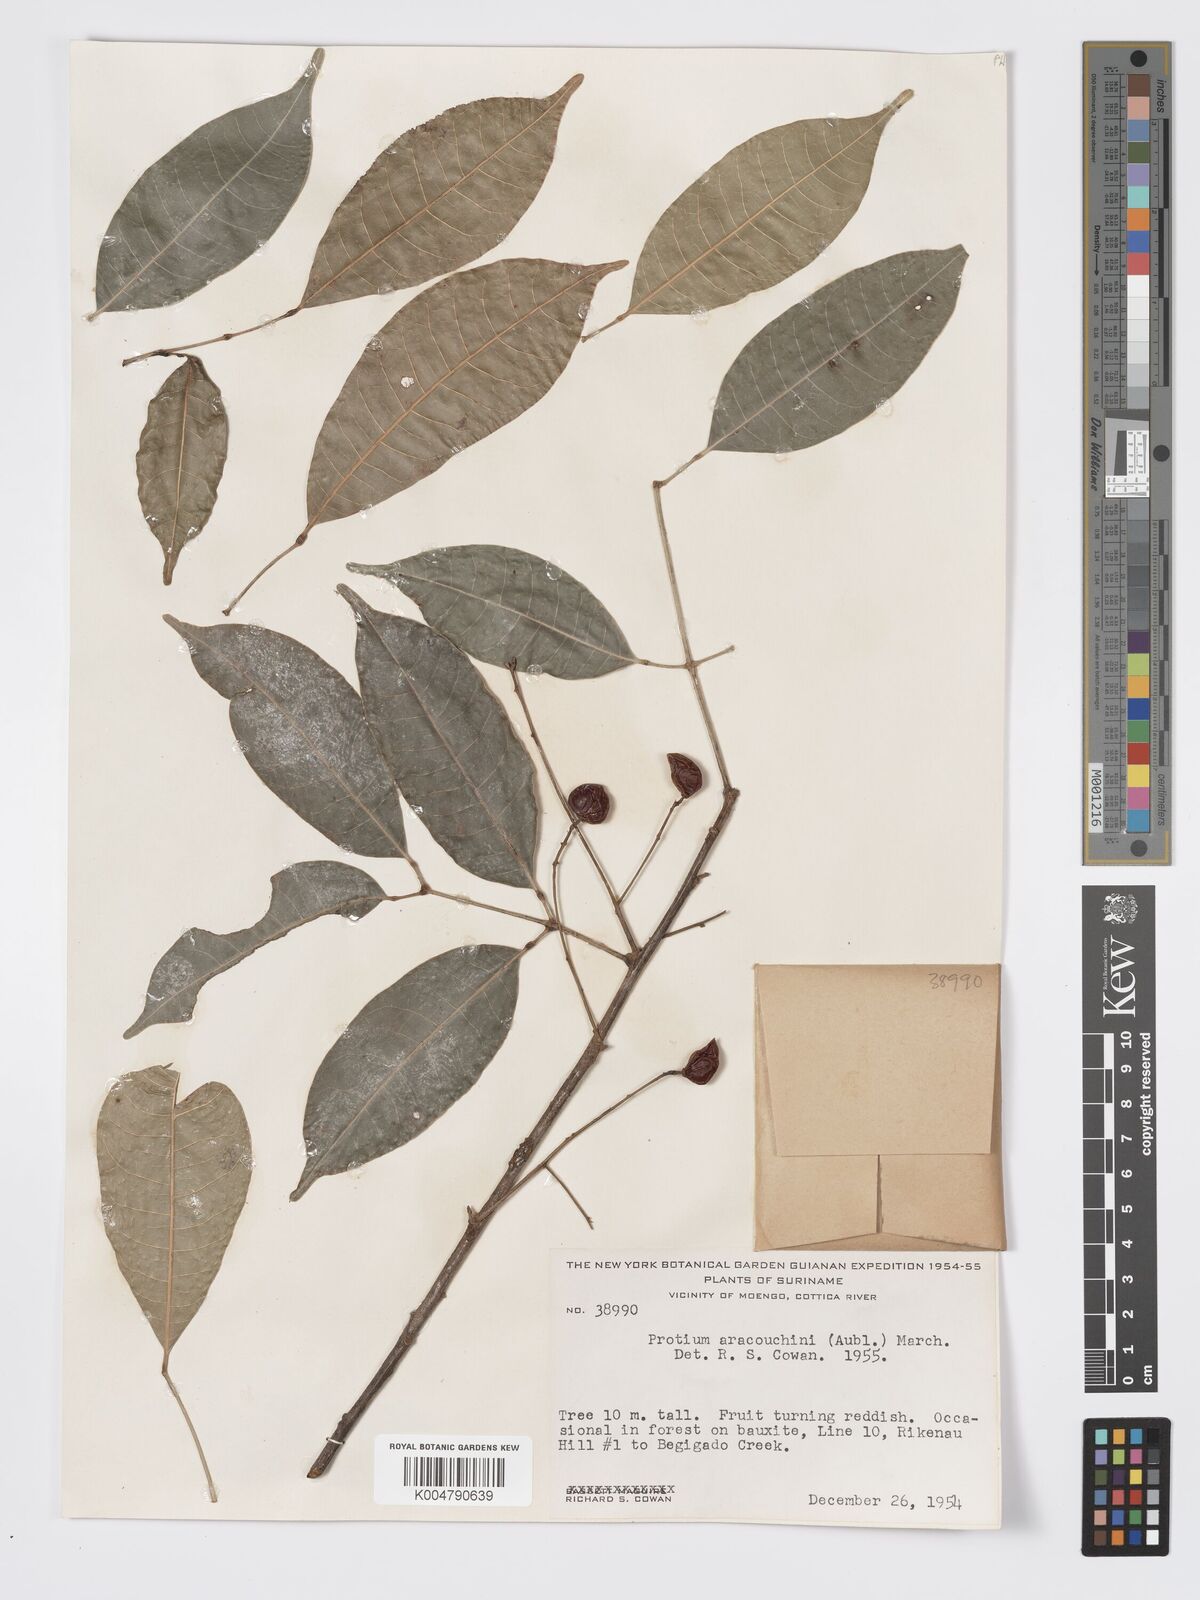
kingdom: Plantae
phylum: Tracheophyta
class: Magnoliopsida
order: Sapindales
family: Burseraceae
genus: Protium
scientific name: Protium aracouchini
